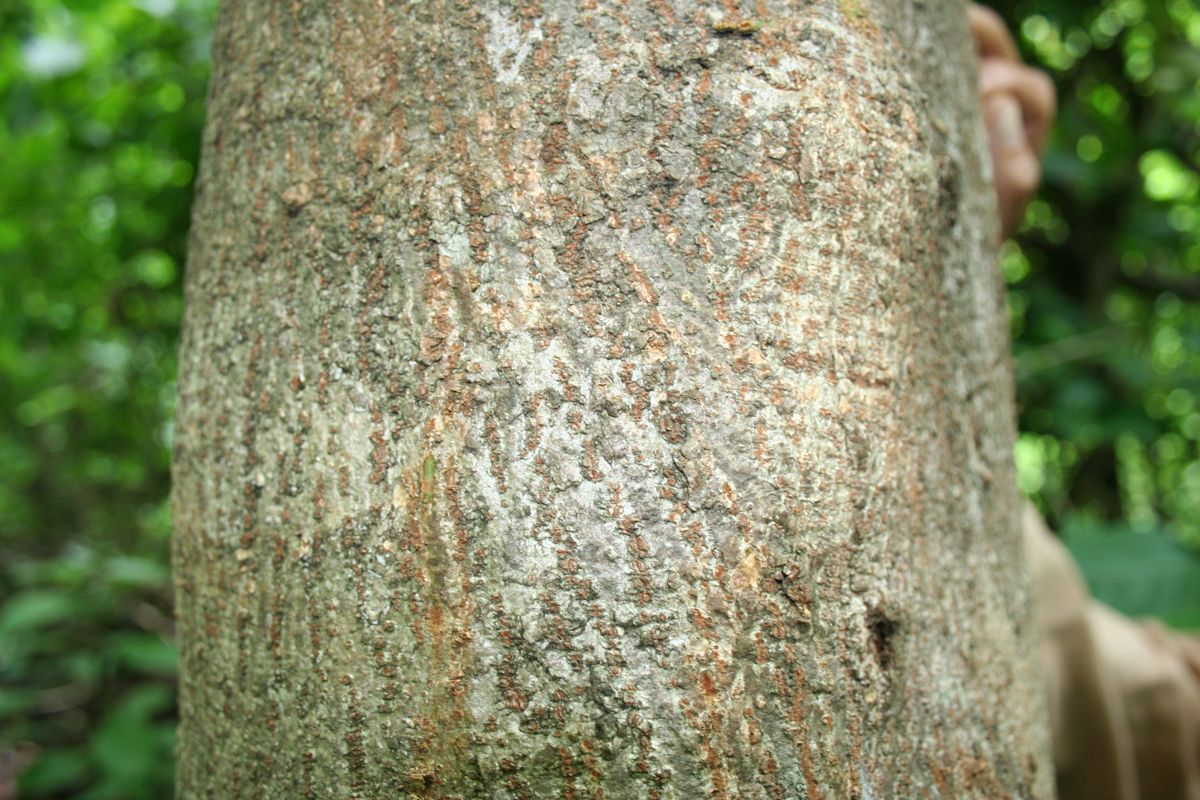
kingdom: Plantae
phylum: Tracheophyta
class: Magnoliopsida
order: Magnoliales
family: Annonaceae
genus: Annona
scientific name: Annona
